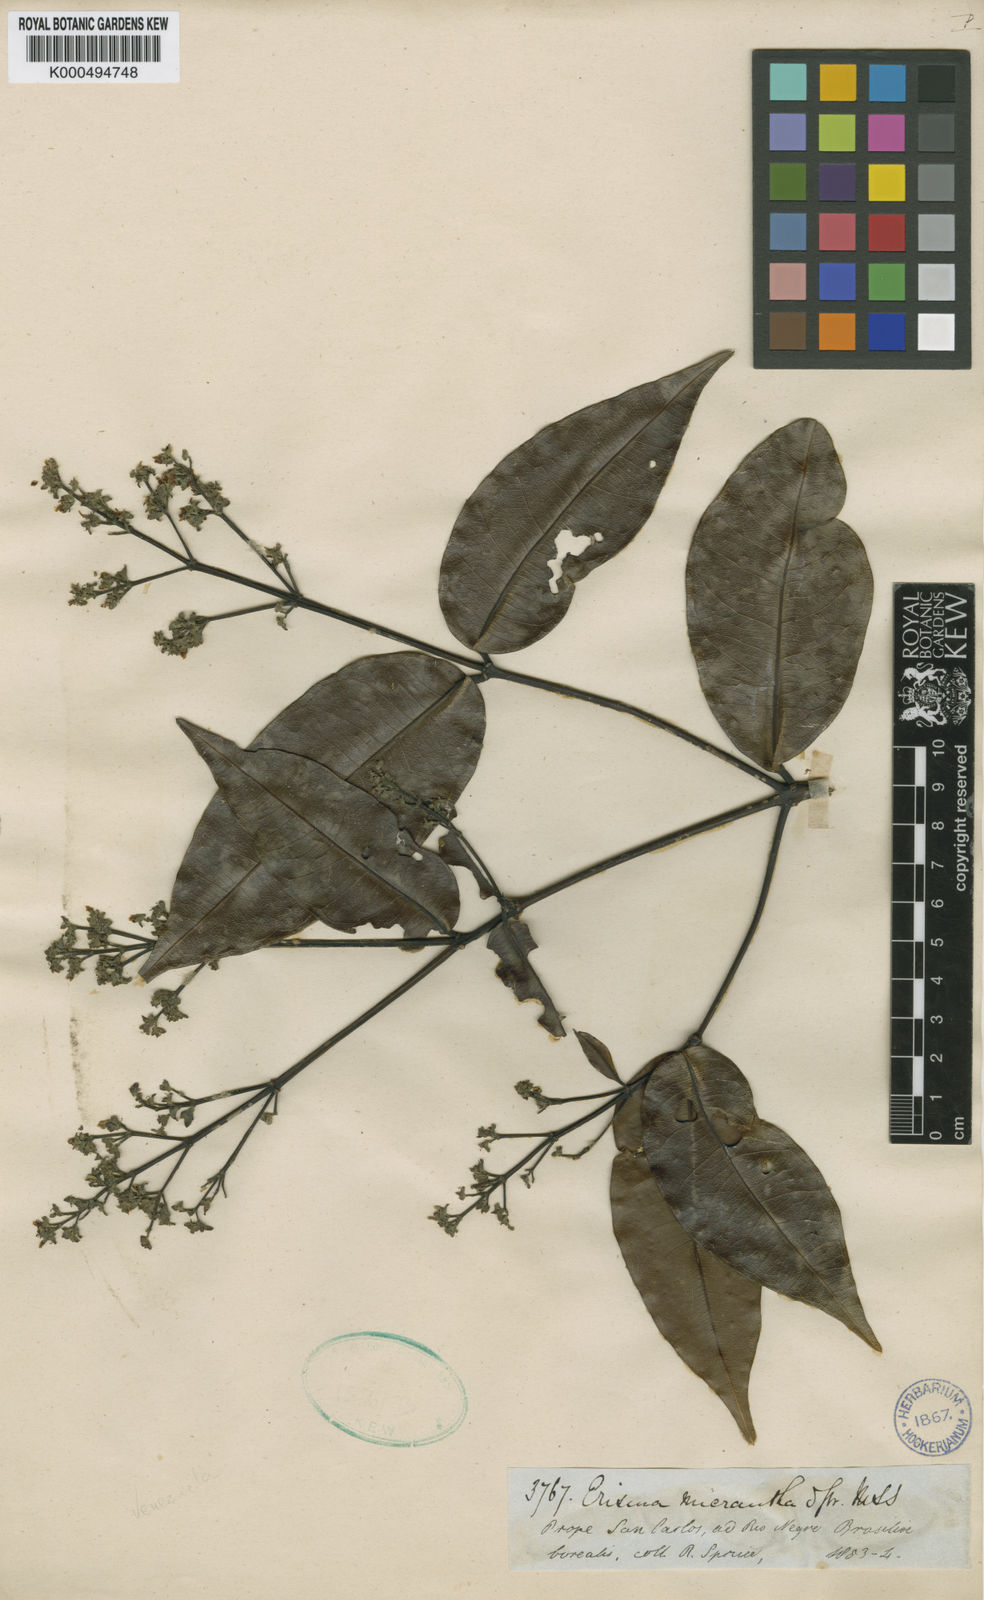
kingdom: Plantae
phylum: Tracheophyta
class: Magnoliopsida
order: Myrtales
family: Vochysiaceae
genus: Erisma
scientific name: Erisma
